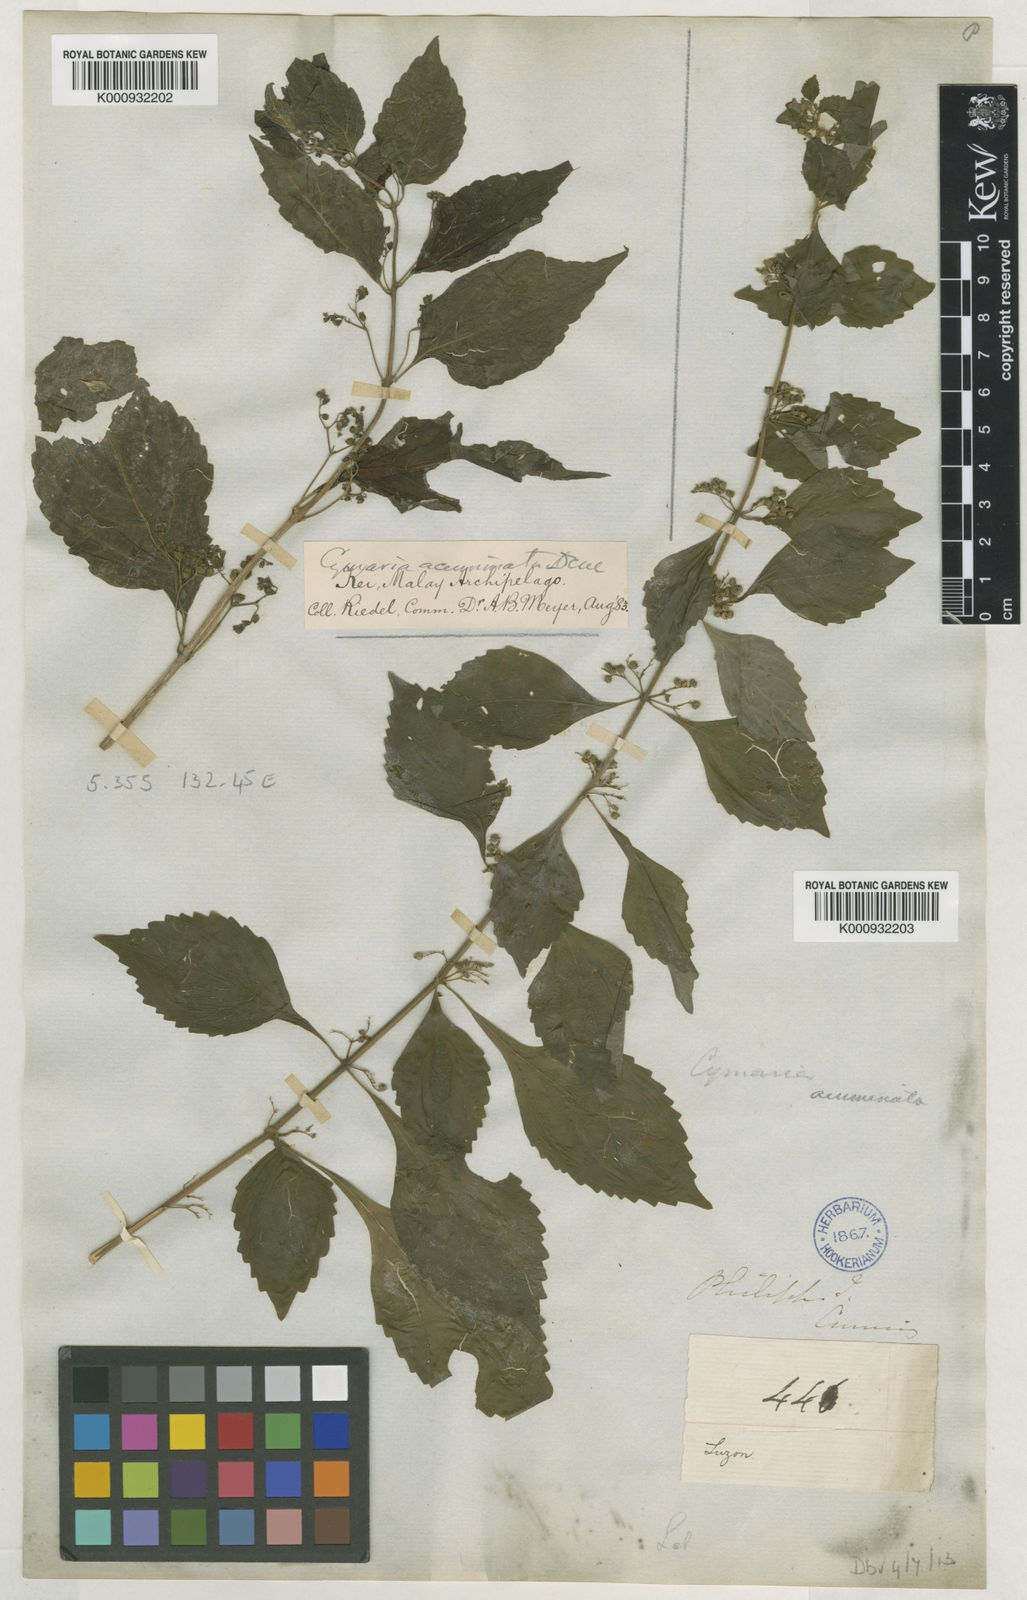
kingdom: Plantae
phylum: Tracheophyta
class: Magnoliopsida
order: Lamiales
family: Lamiaceae
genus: Cymaria
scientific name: Cymaria dichotoma
